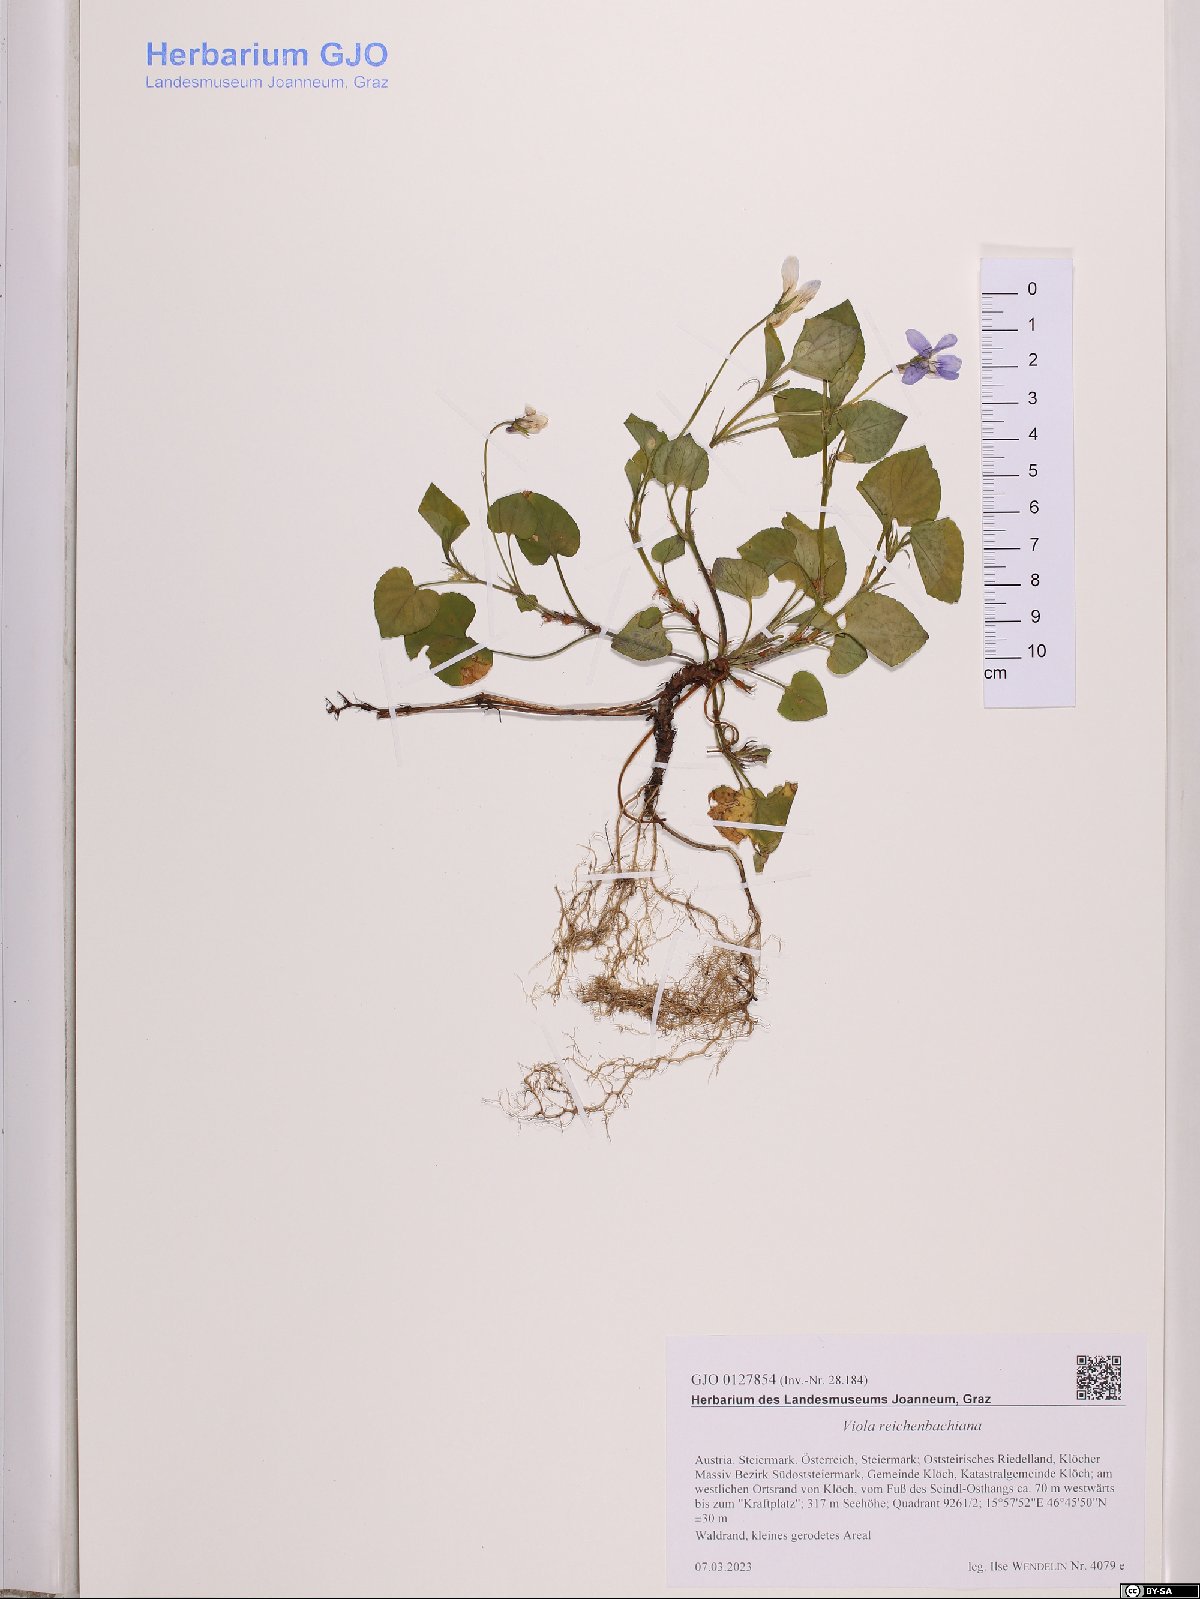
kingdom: Plantae
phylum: Tracheophyta
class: Magnoliopsida
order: Malpighiales
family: Violaceae
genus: Viola
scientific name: Viola reichenbachiana
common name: Early dog-violet
